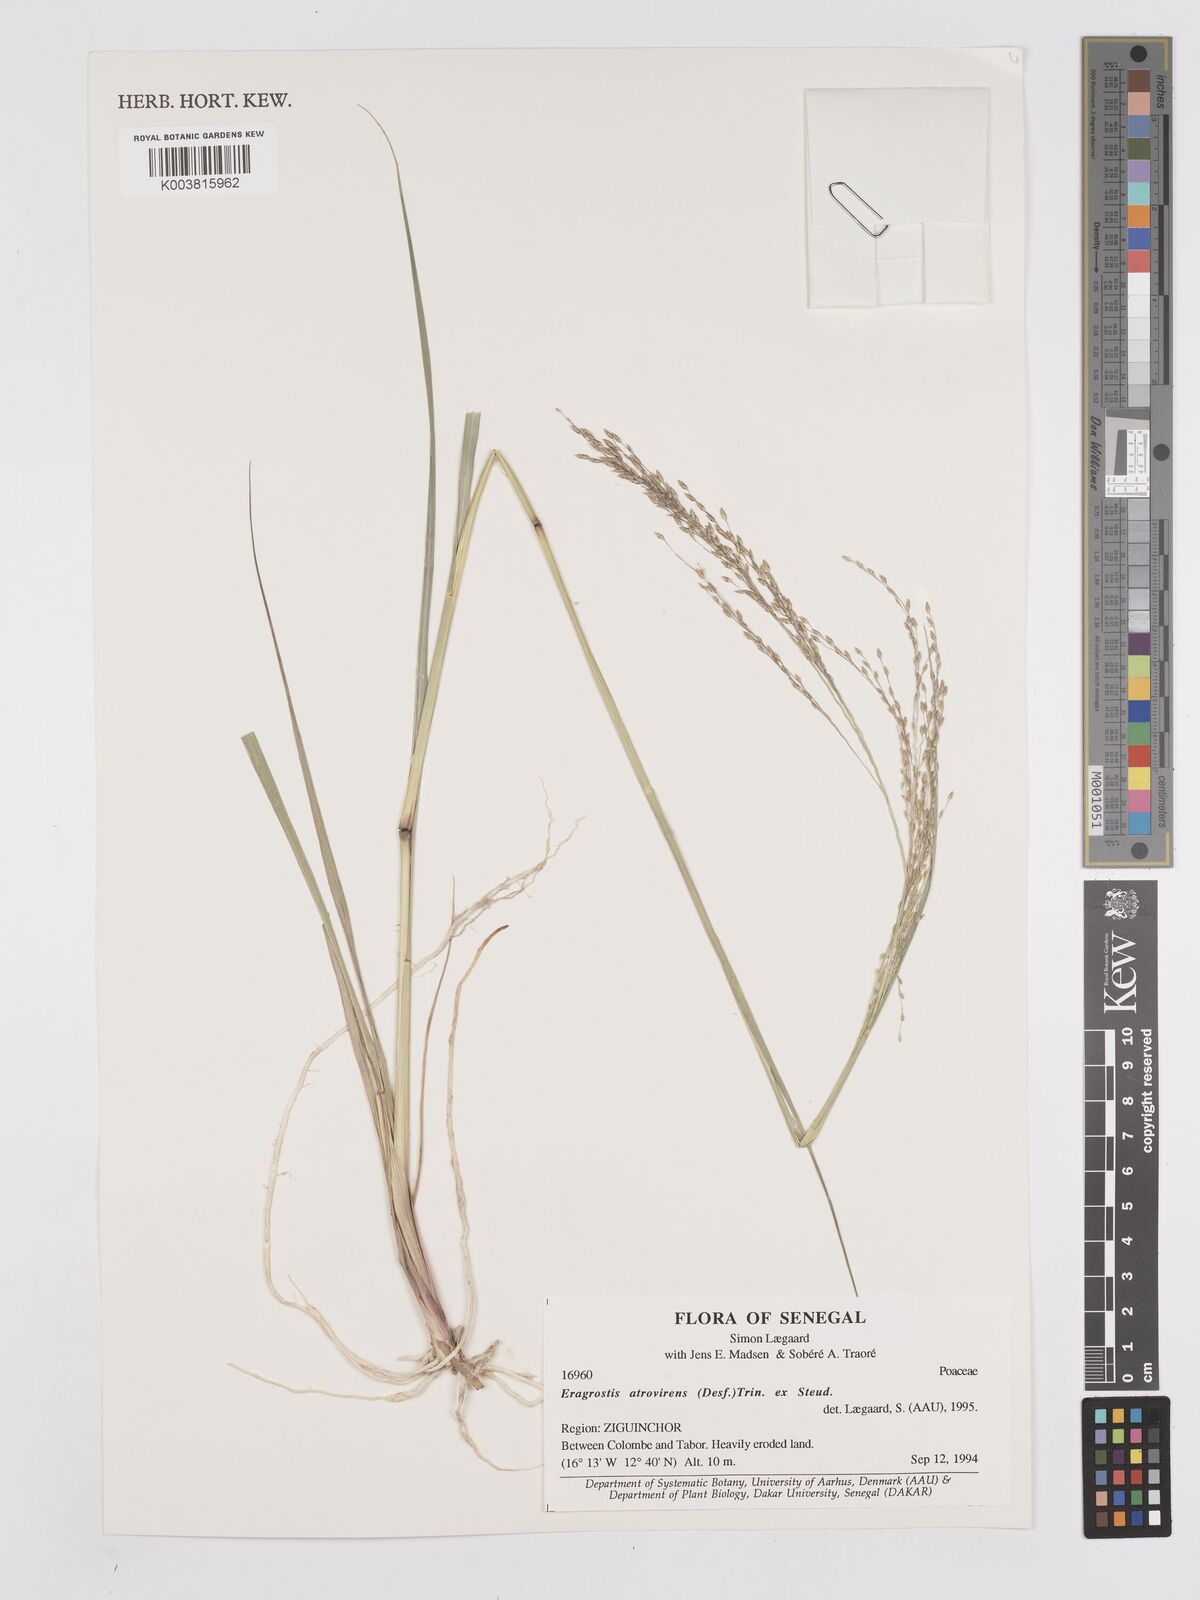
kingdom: Plantae
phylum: Tracheophyta
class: Liliopsida
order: Poales
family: Poaceae
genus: Eragrostis
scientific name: Eragrostis atrovirens
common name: Thalia lovegrass
